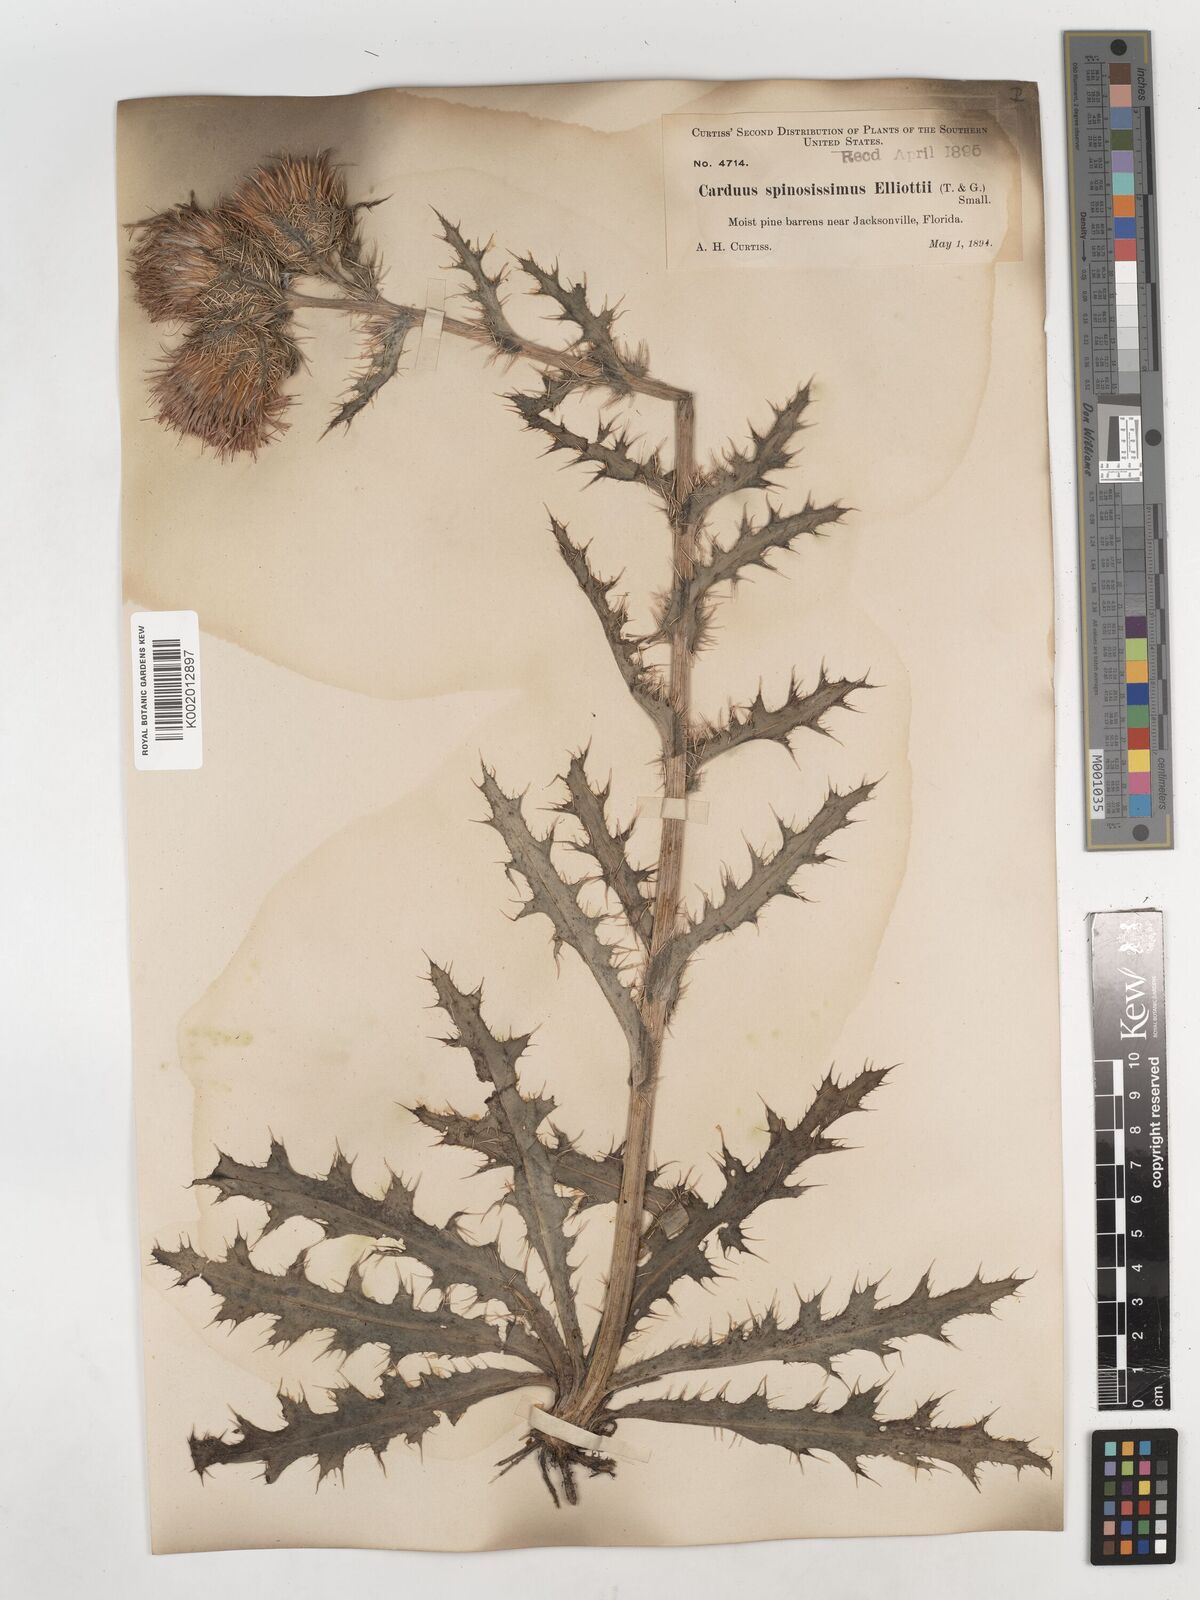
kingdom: Plantae
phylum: Tracheophyta
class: Magnoliopsida
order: Asterales
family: Asteraceae
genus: Cirsium
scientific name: Cirsium horridulum
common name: Bristly thistle
